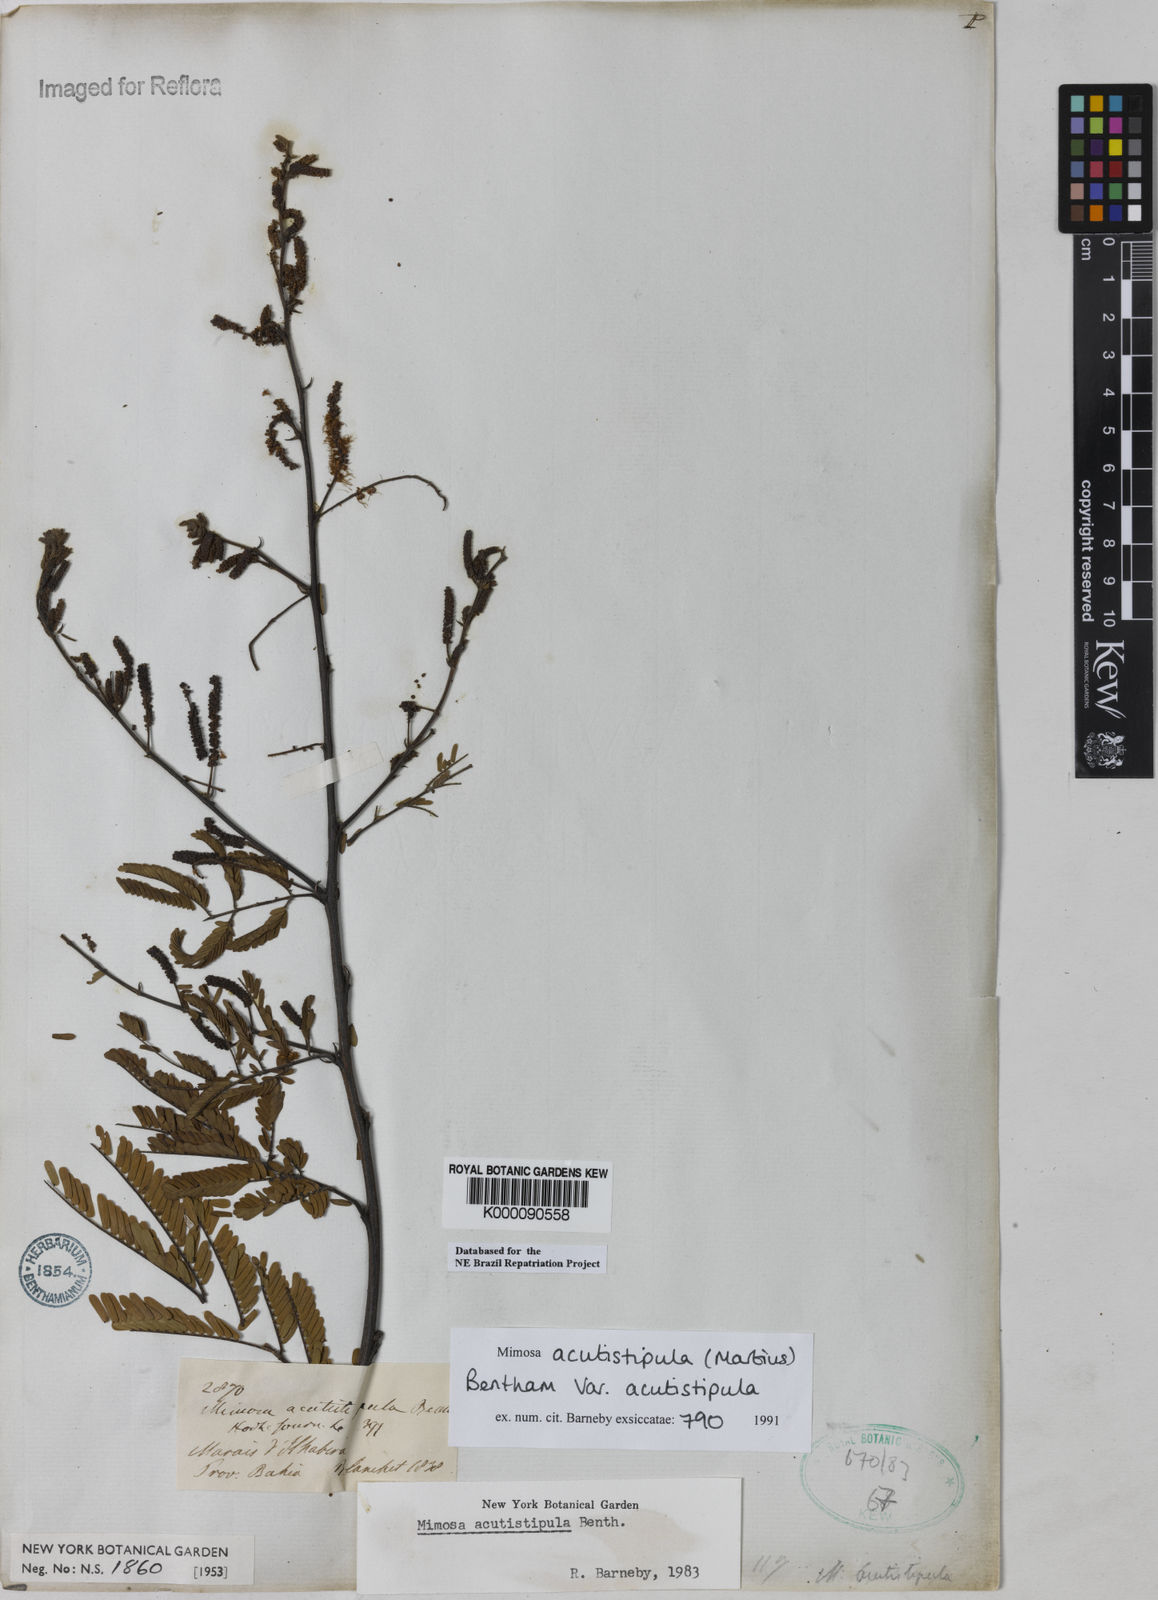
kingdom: Plantae
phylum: Tracheophyta
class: Magnoliopsida
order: Fabales
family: Fabaceae
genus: Mimosa
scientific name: Mimosa acutistipula
